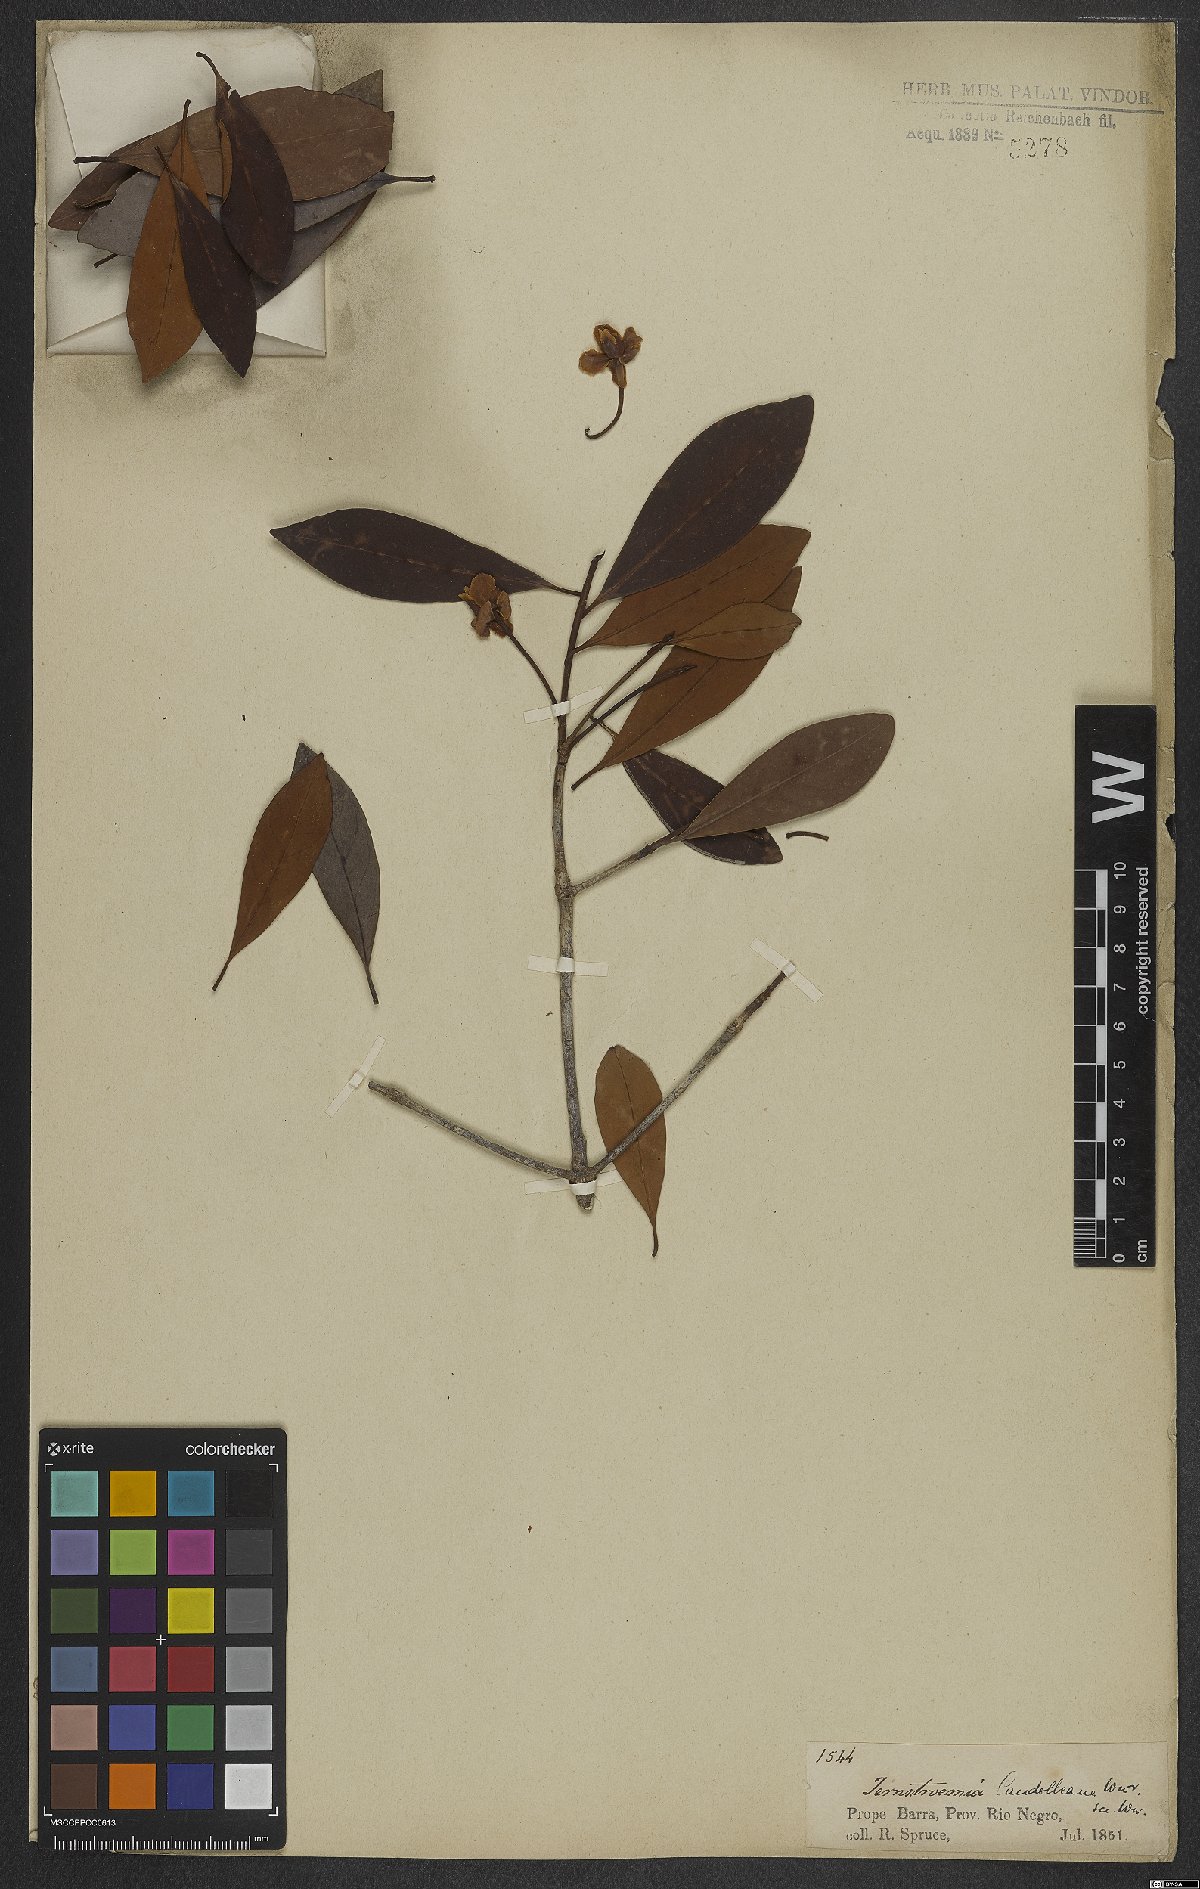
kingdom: Plantae
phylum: Tracheophyta
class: Magnoliopsida
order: Ericales
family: Pentaphylacaceae
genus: Ternstroemia
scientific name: Ternstroemia candolleana
